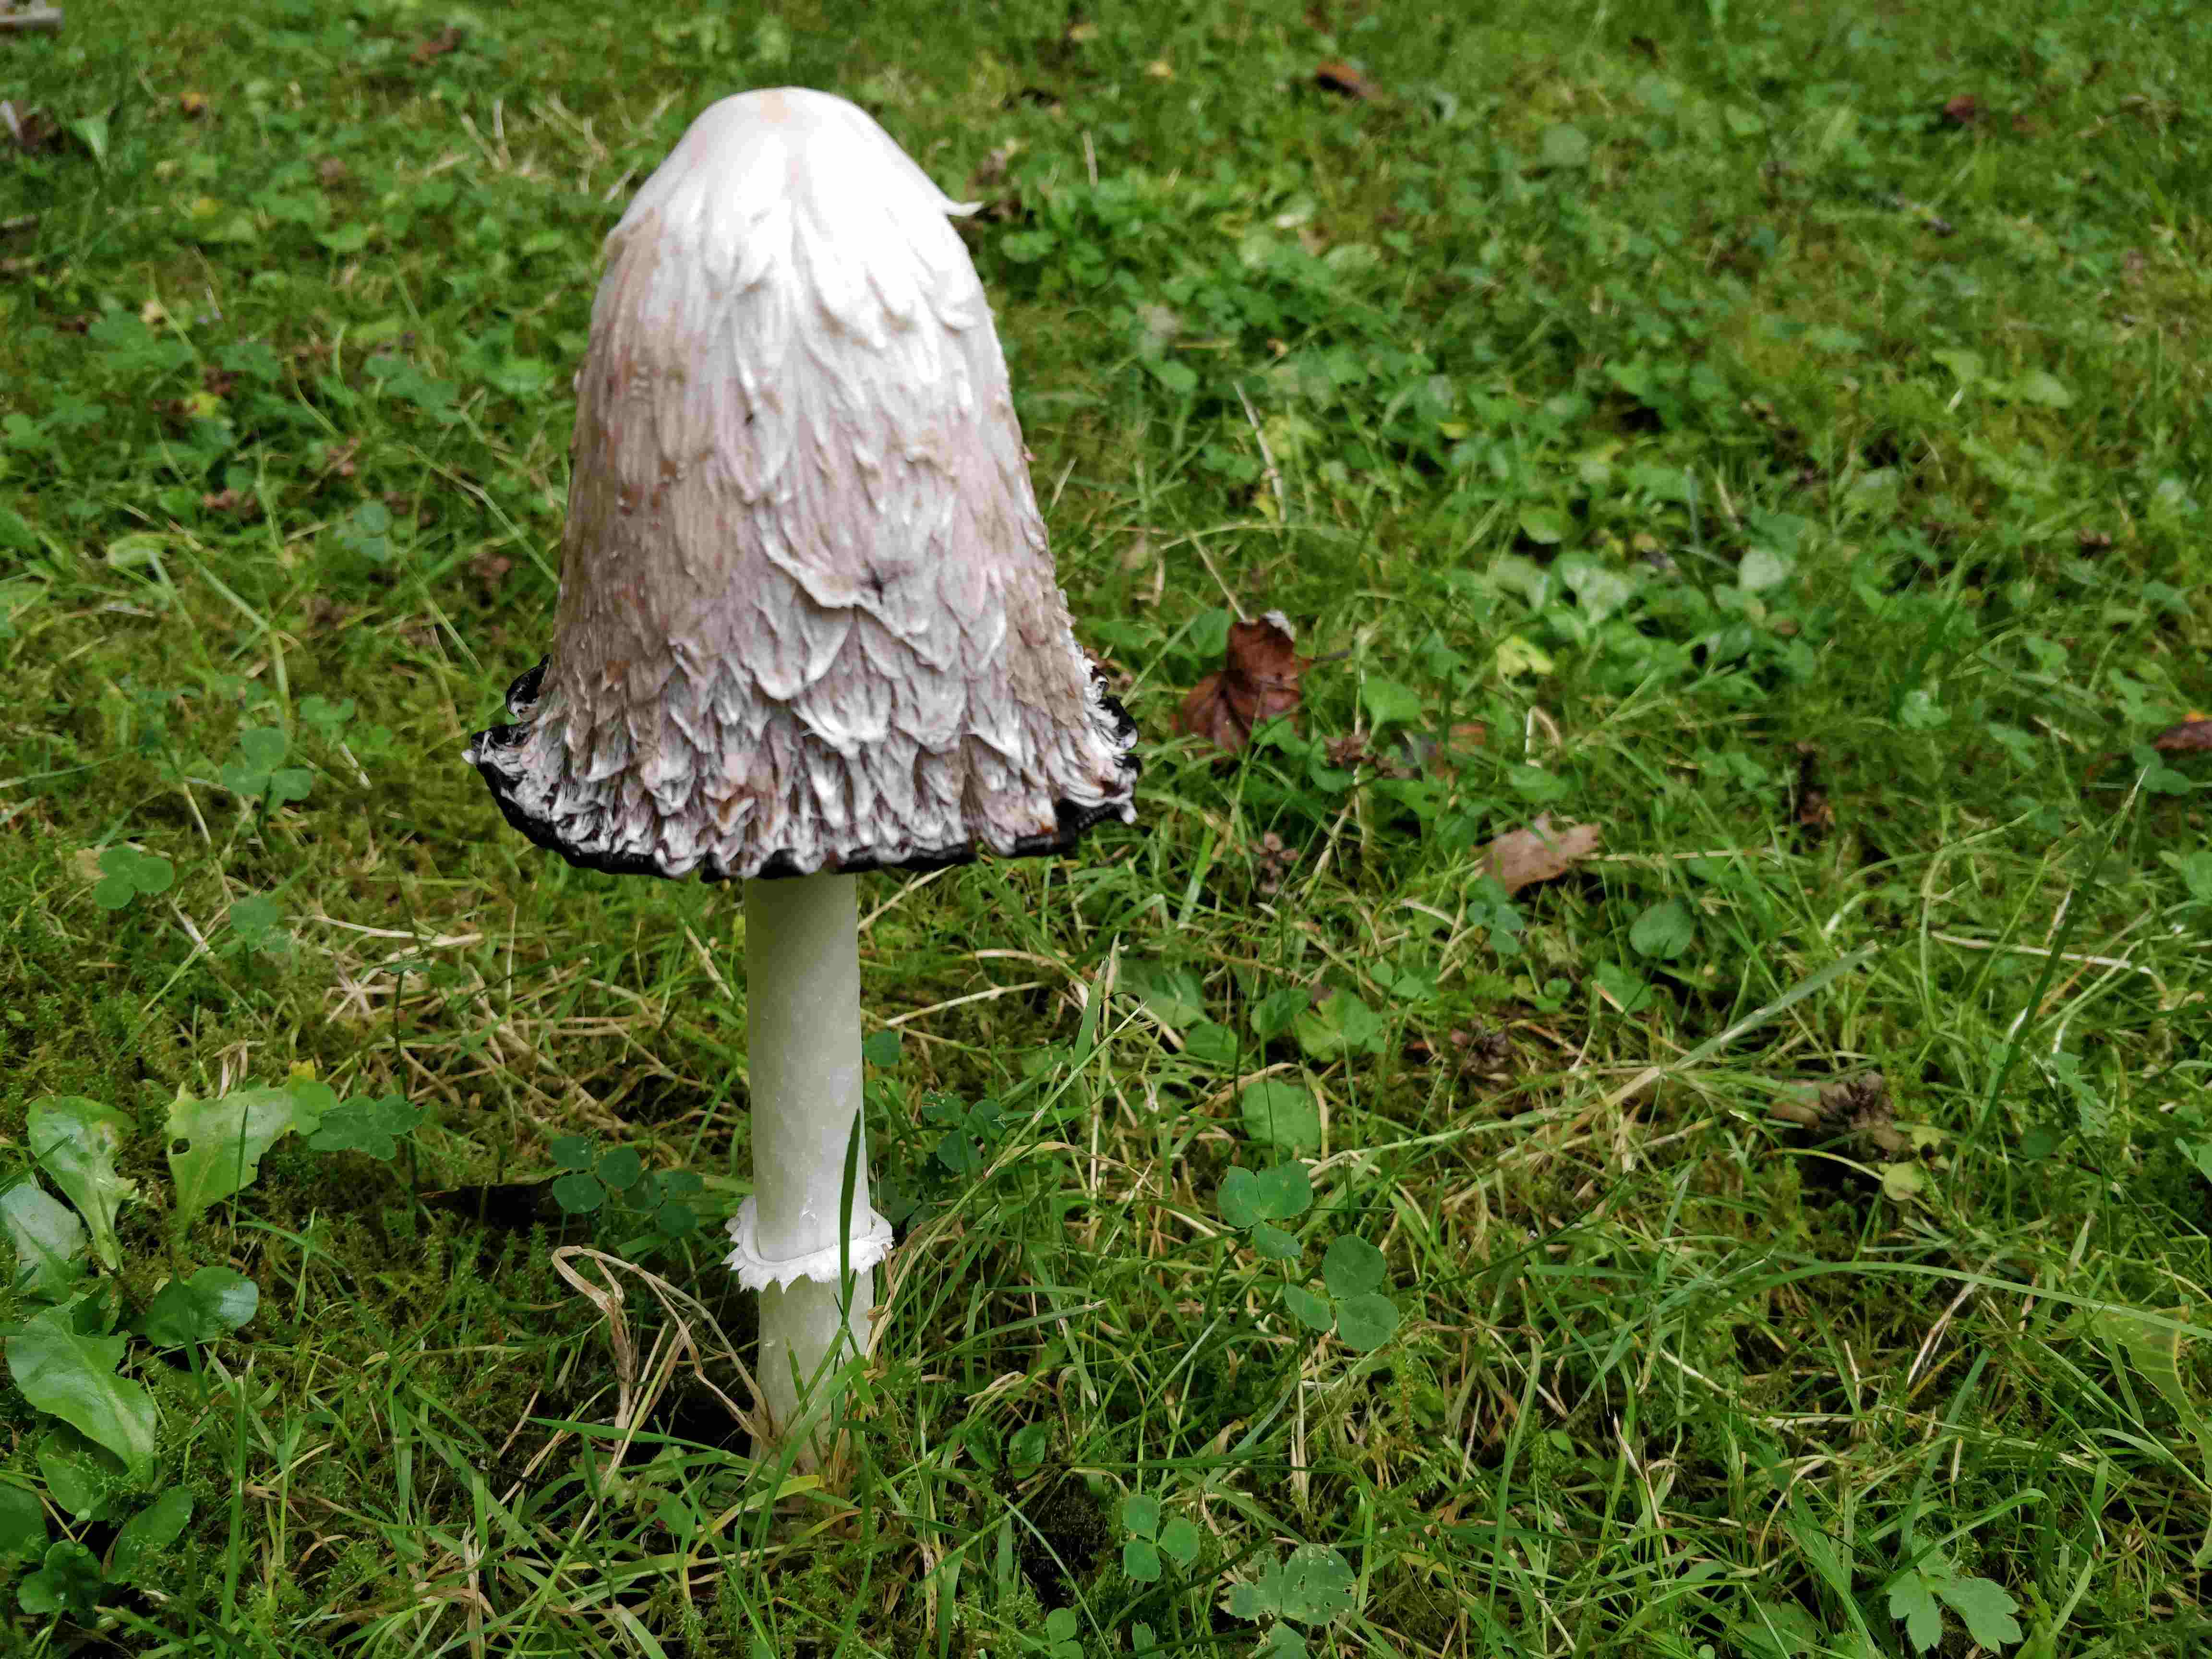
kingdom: Fungi
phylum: Basidiomycota
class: Agaricomycetes
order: Agaricales
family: Agaricaceae
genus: Coprinus
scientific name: Coprinus comatus
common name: stor parykhat
